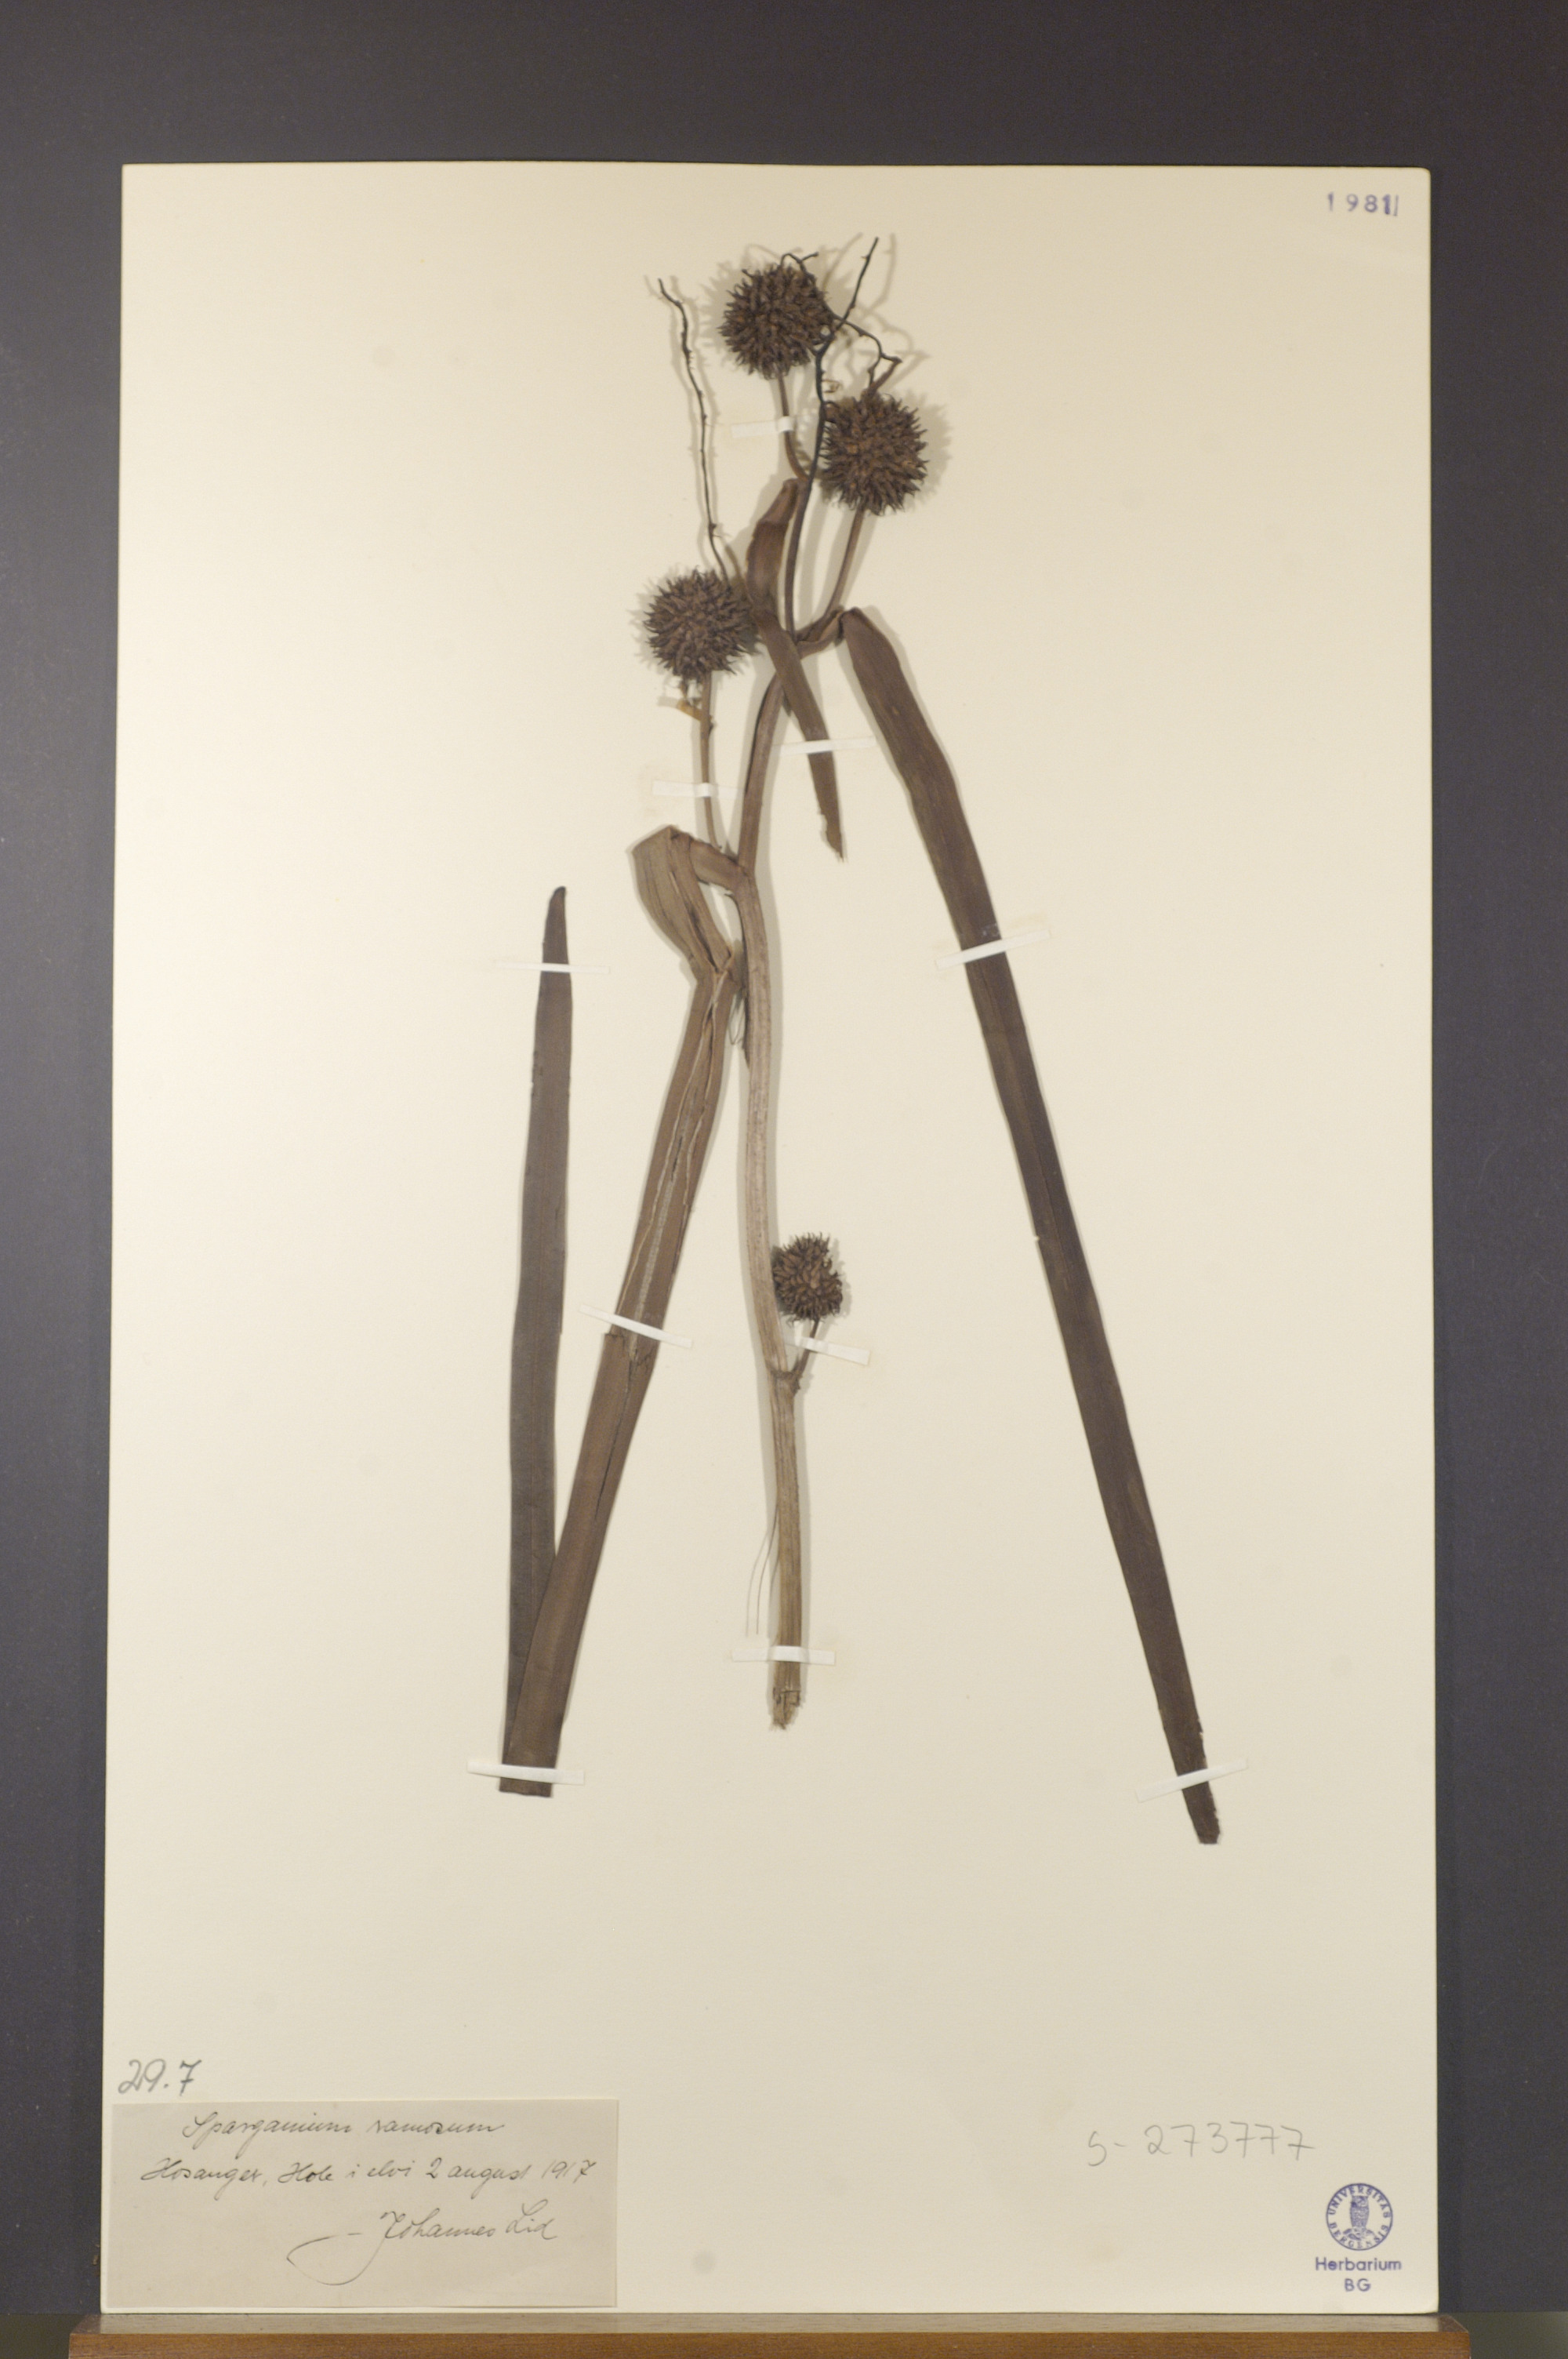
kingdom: Plantae
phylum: Tracheophyta
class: Liliopsida
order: Poales
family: Typhaceae
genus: Sparganium
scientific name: Sparganium erectum
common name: Branched bur-reed
